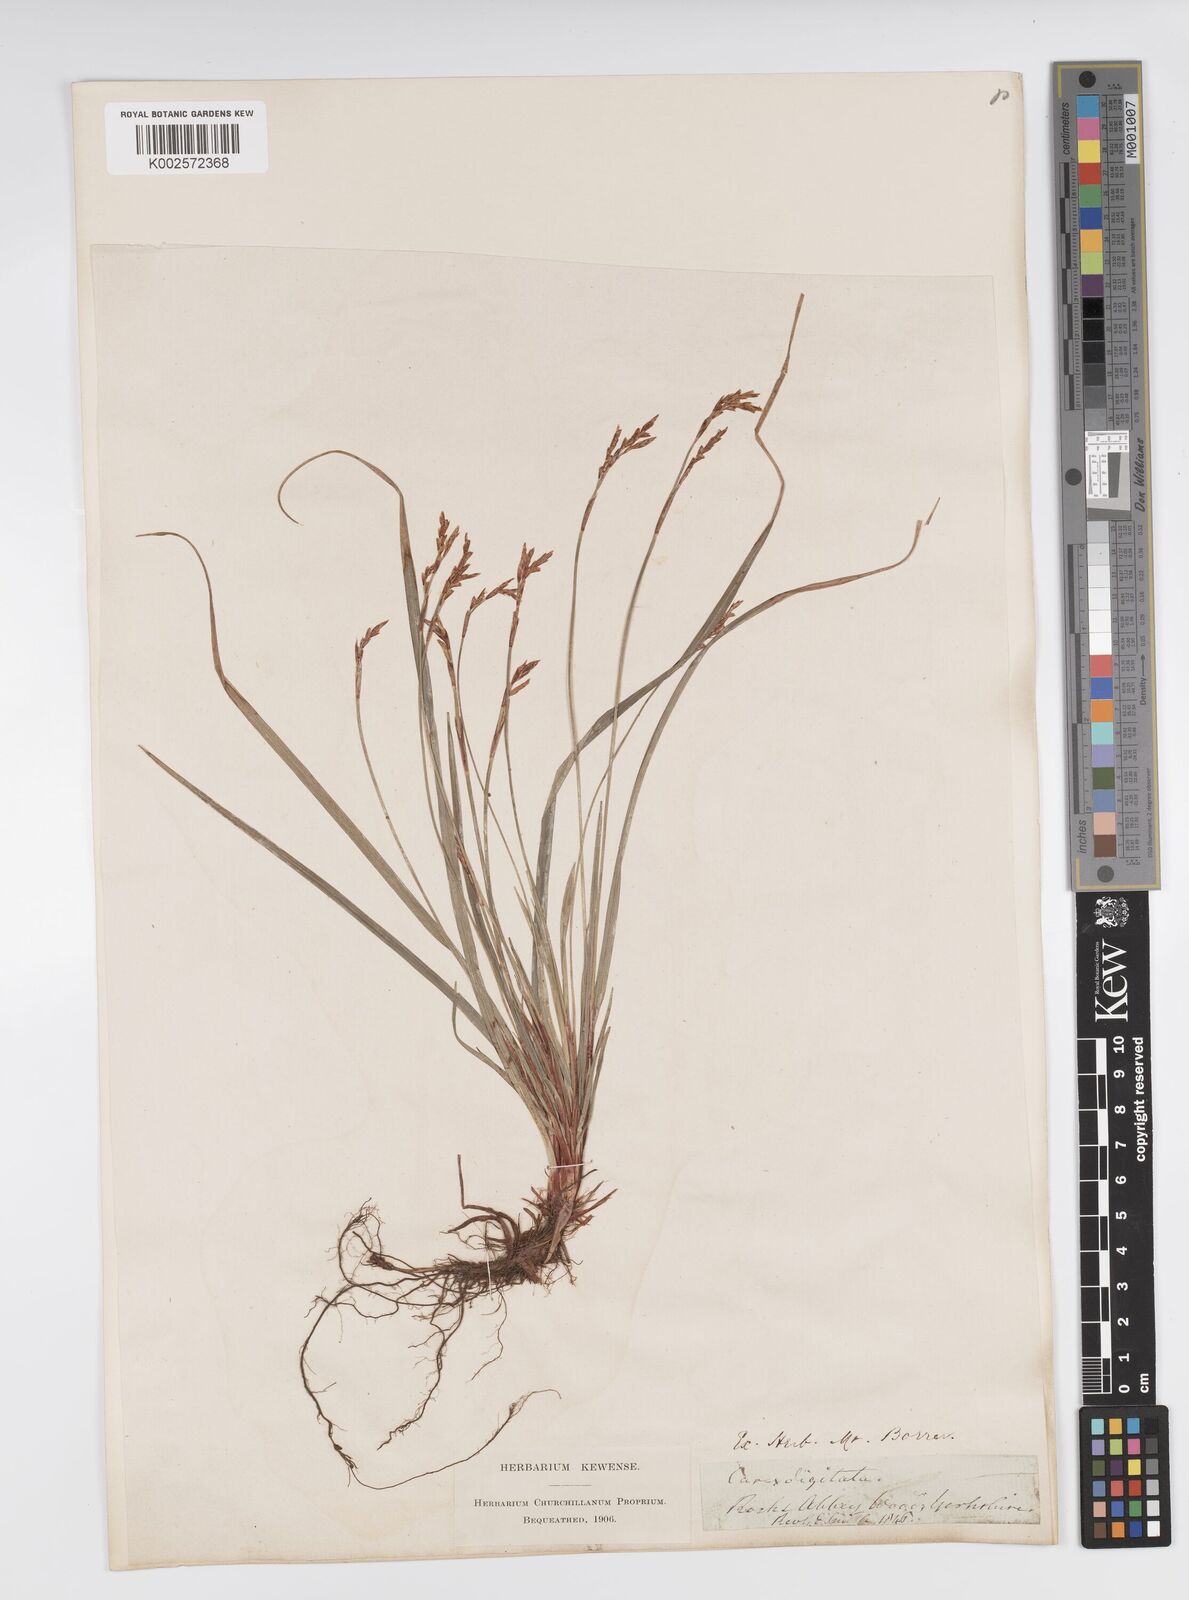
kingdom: Plantae
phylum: Tracheophyta
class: Liliopsida
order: Poales
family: Cyperaceae
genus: Carex
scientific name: Carex digitata
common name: Fingered sedge
